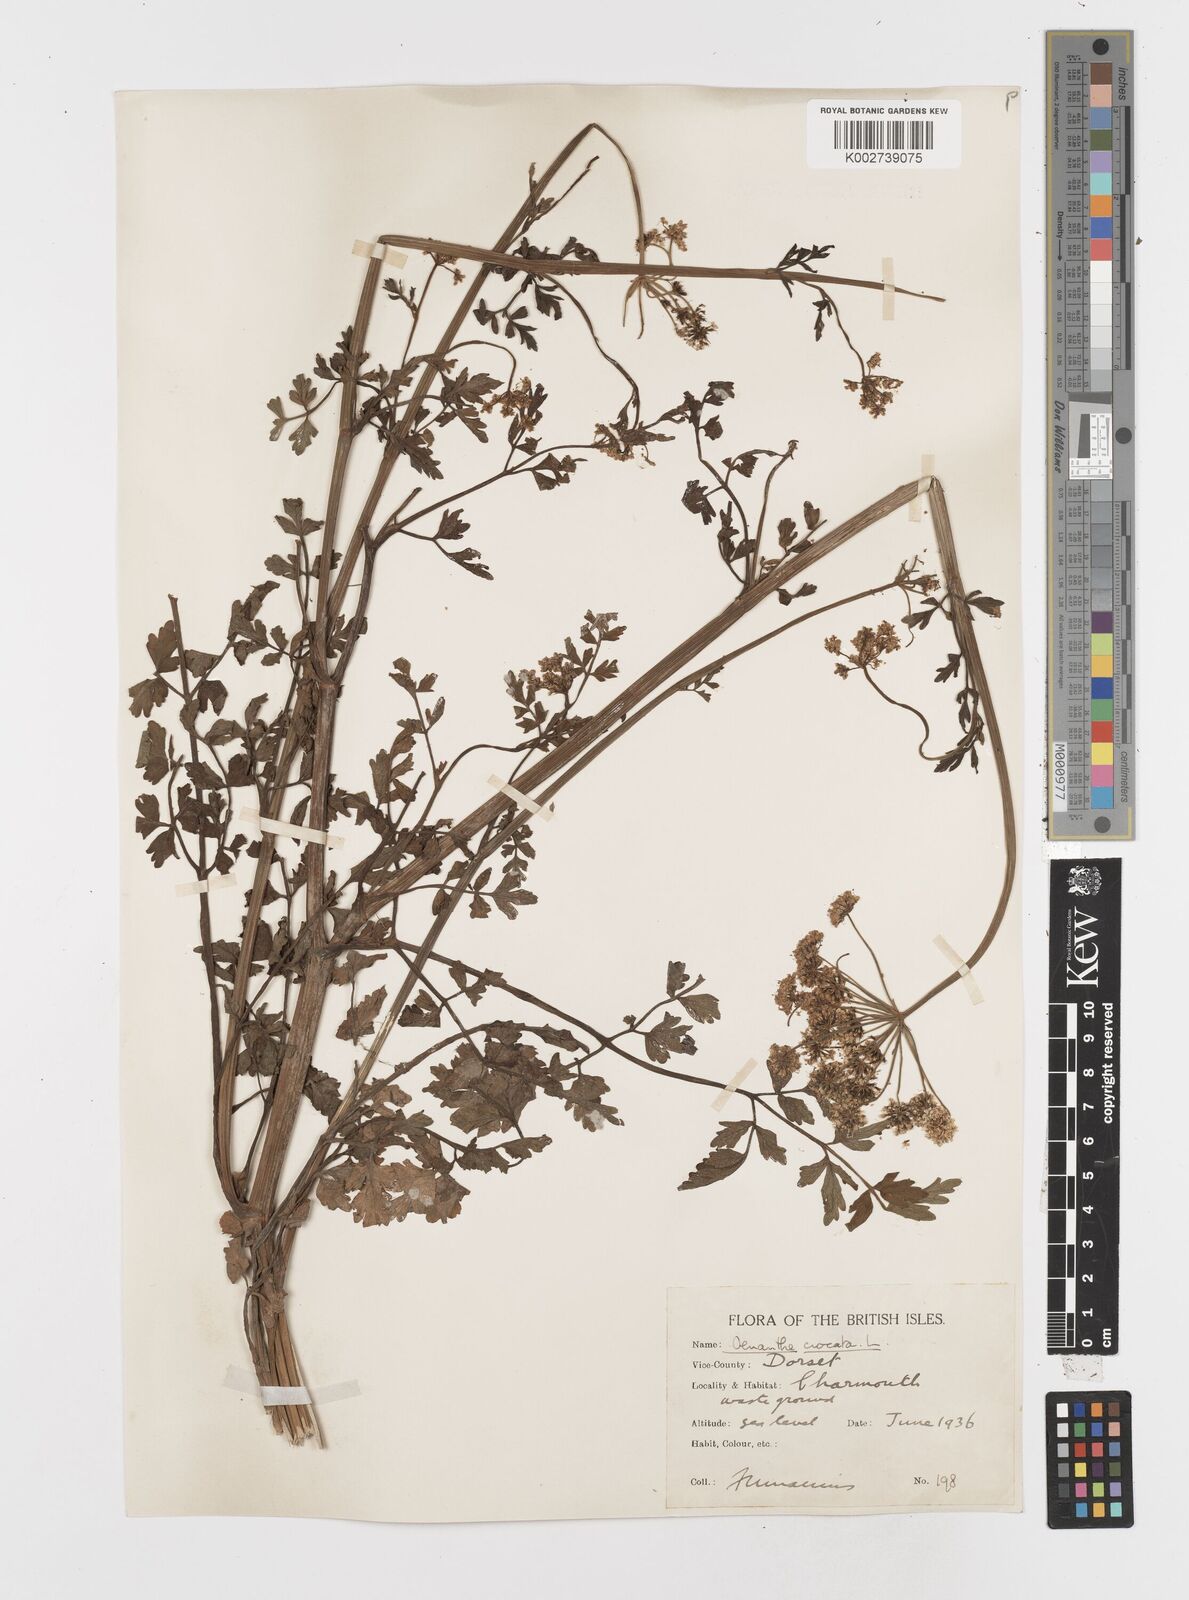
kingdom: Plantae
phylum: Tracheophyta
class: Magnoliopsida
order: Apiales
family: Apiaceae
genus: Oenanthe
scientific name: Oenanthe crocata
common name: Hemlock water-dropwort
